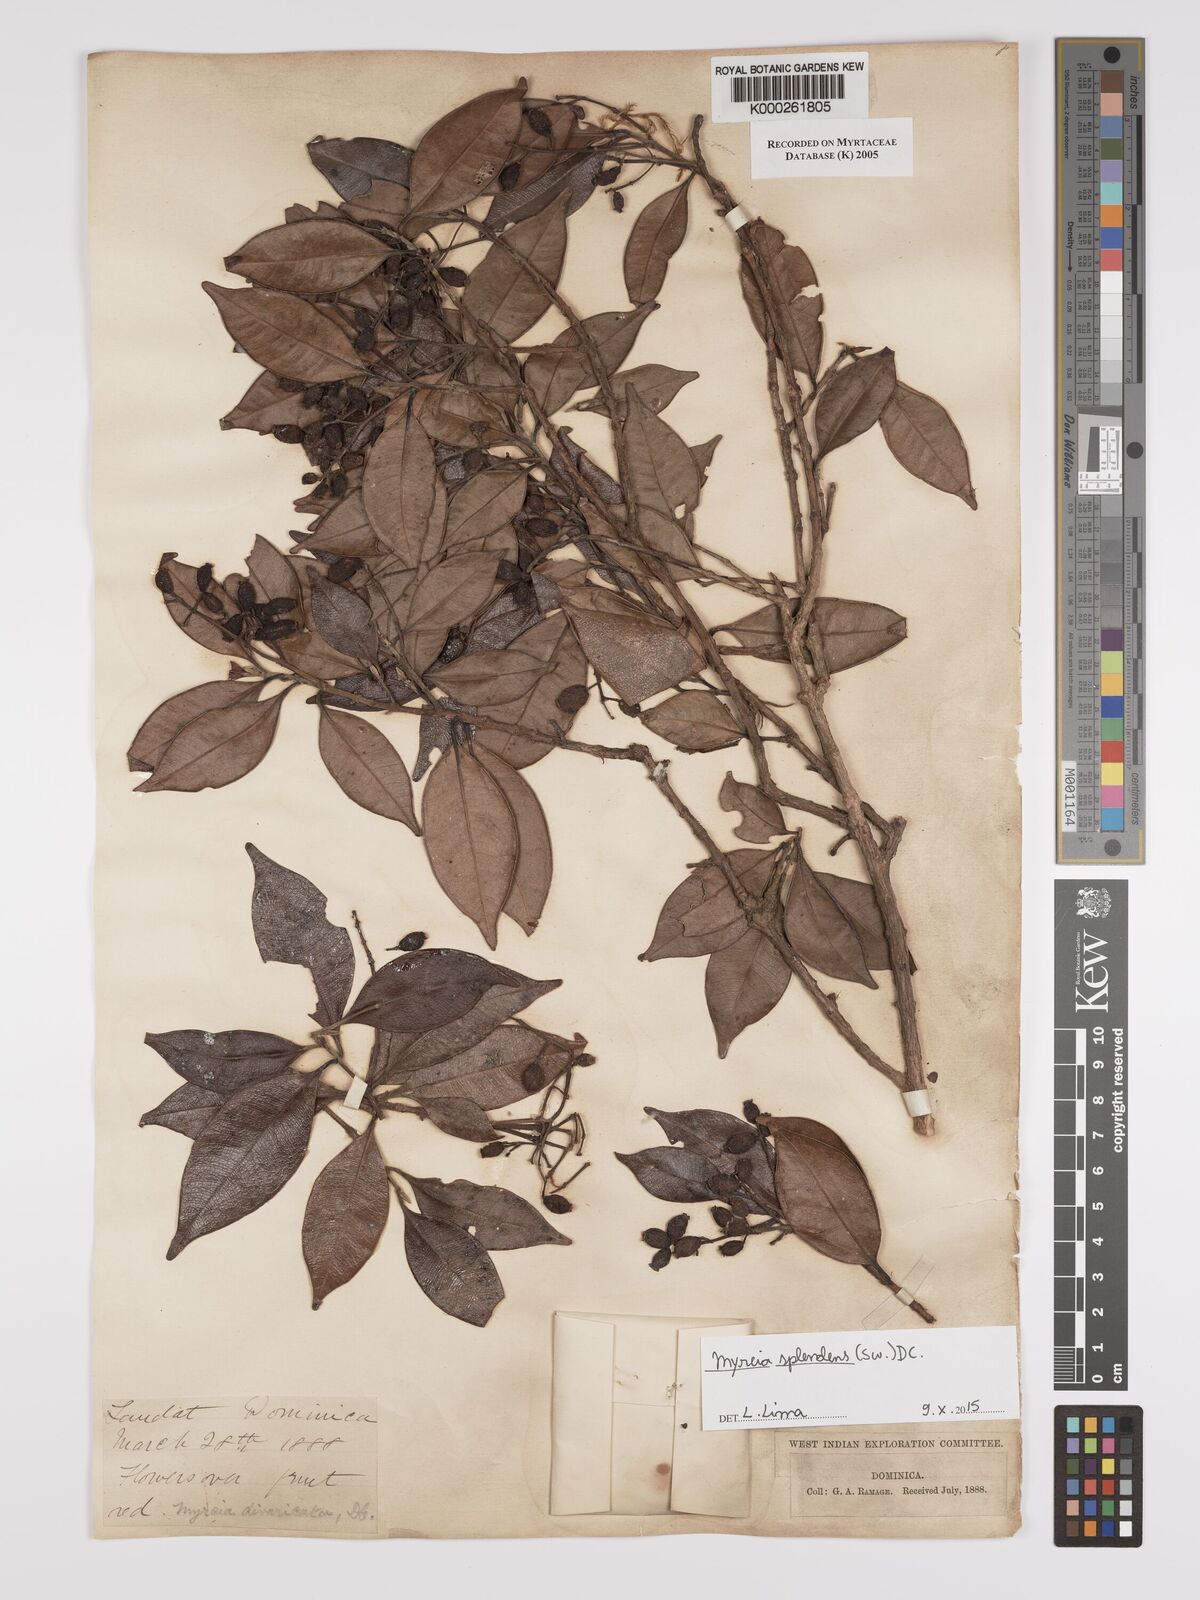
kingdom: Plantae
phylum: Tracheophyta
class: Magnoliopsida
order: Myrtales
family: Myrtaceae
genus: Myrcia
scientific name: Myrcia splendens
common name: Surinam cherry
